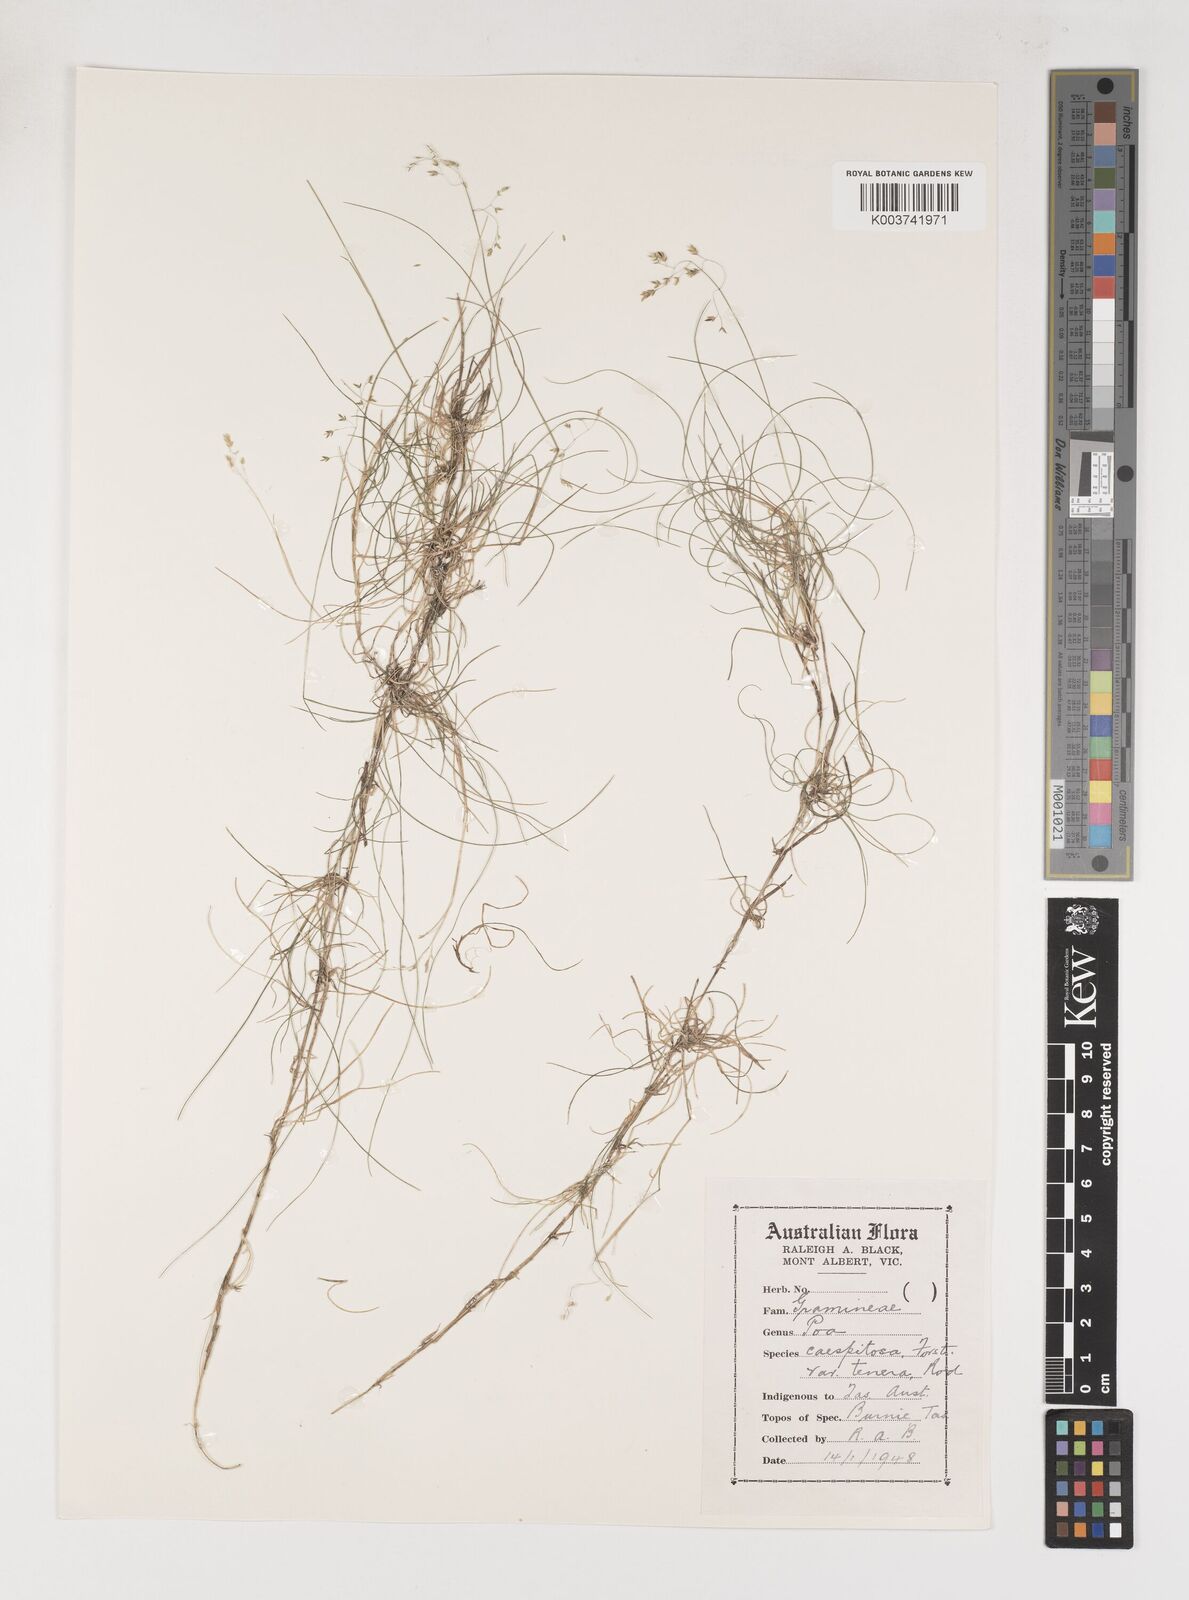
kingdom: Plantae
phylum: Tracheophyta
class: Liliopsida
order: Poales
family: Poaceae
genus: Poa
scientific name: Poa tenera
